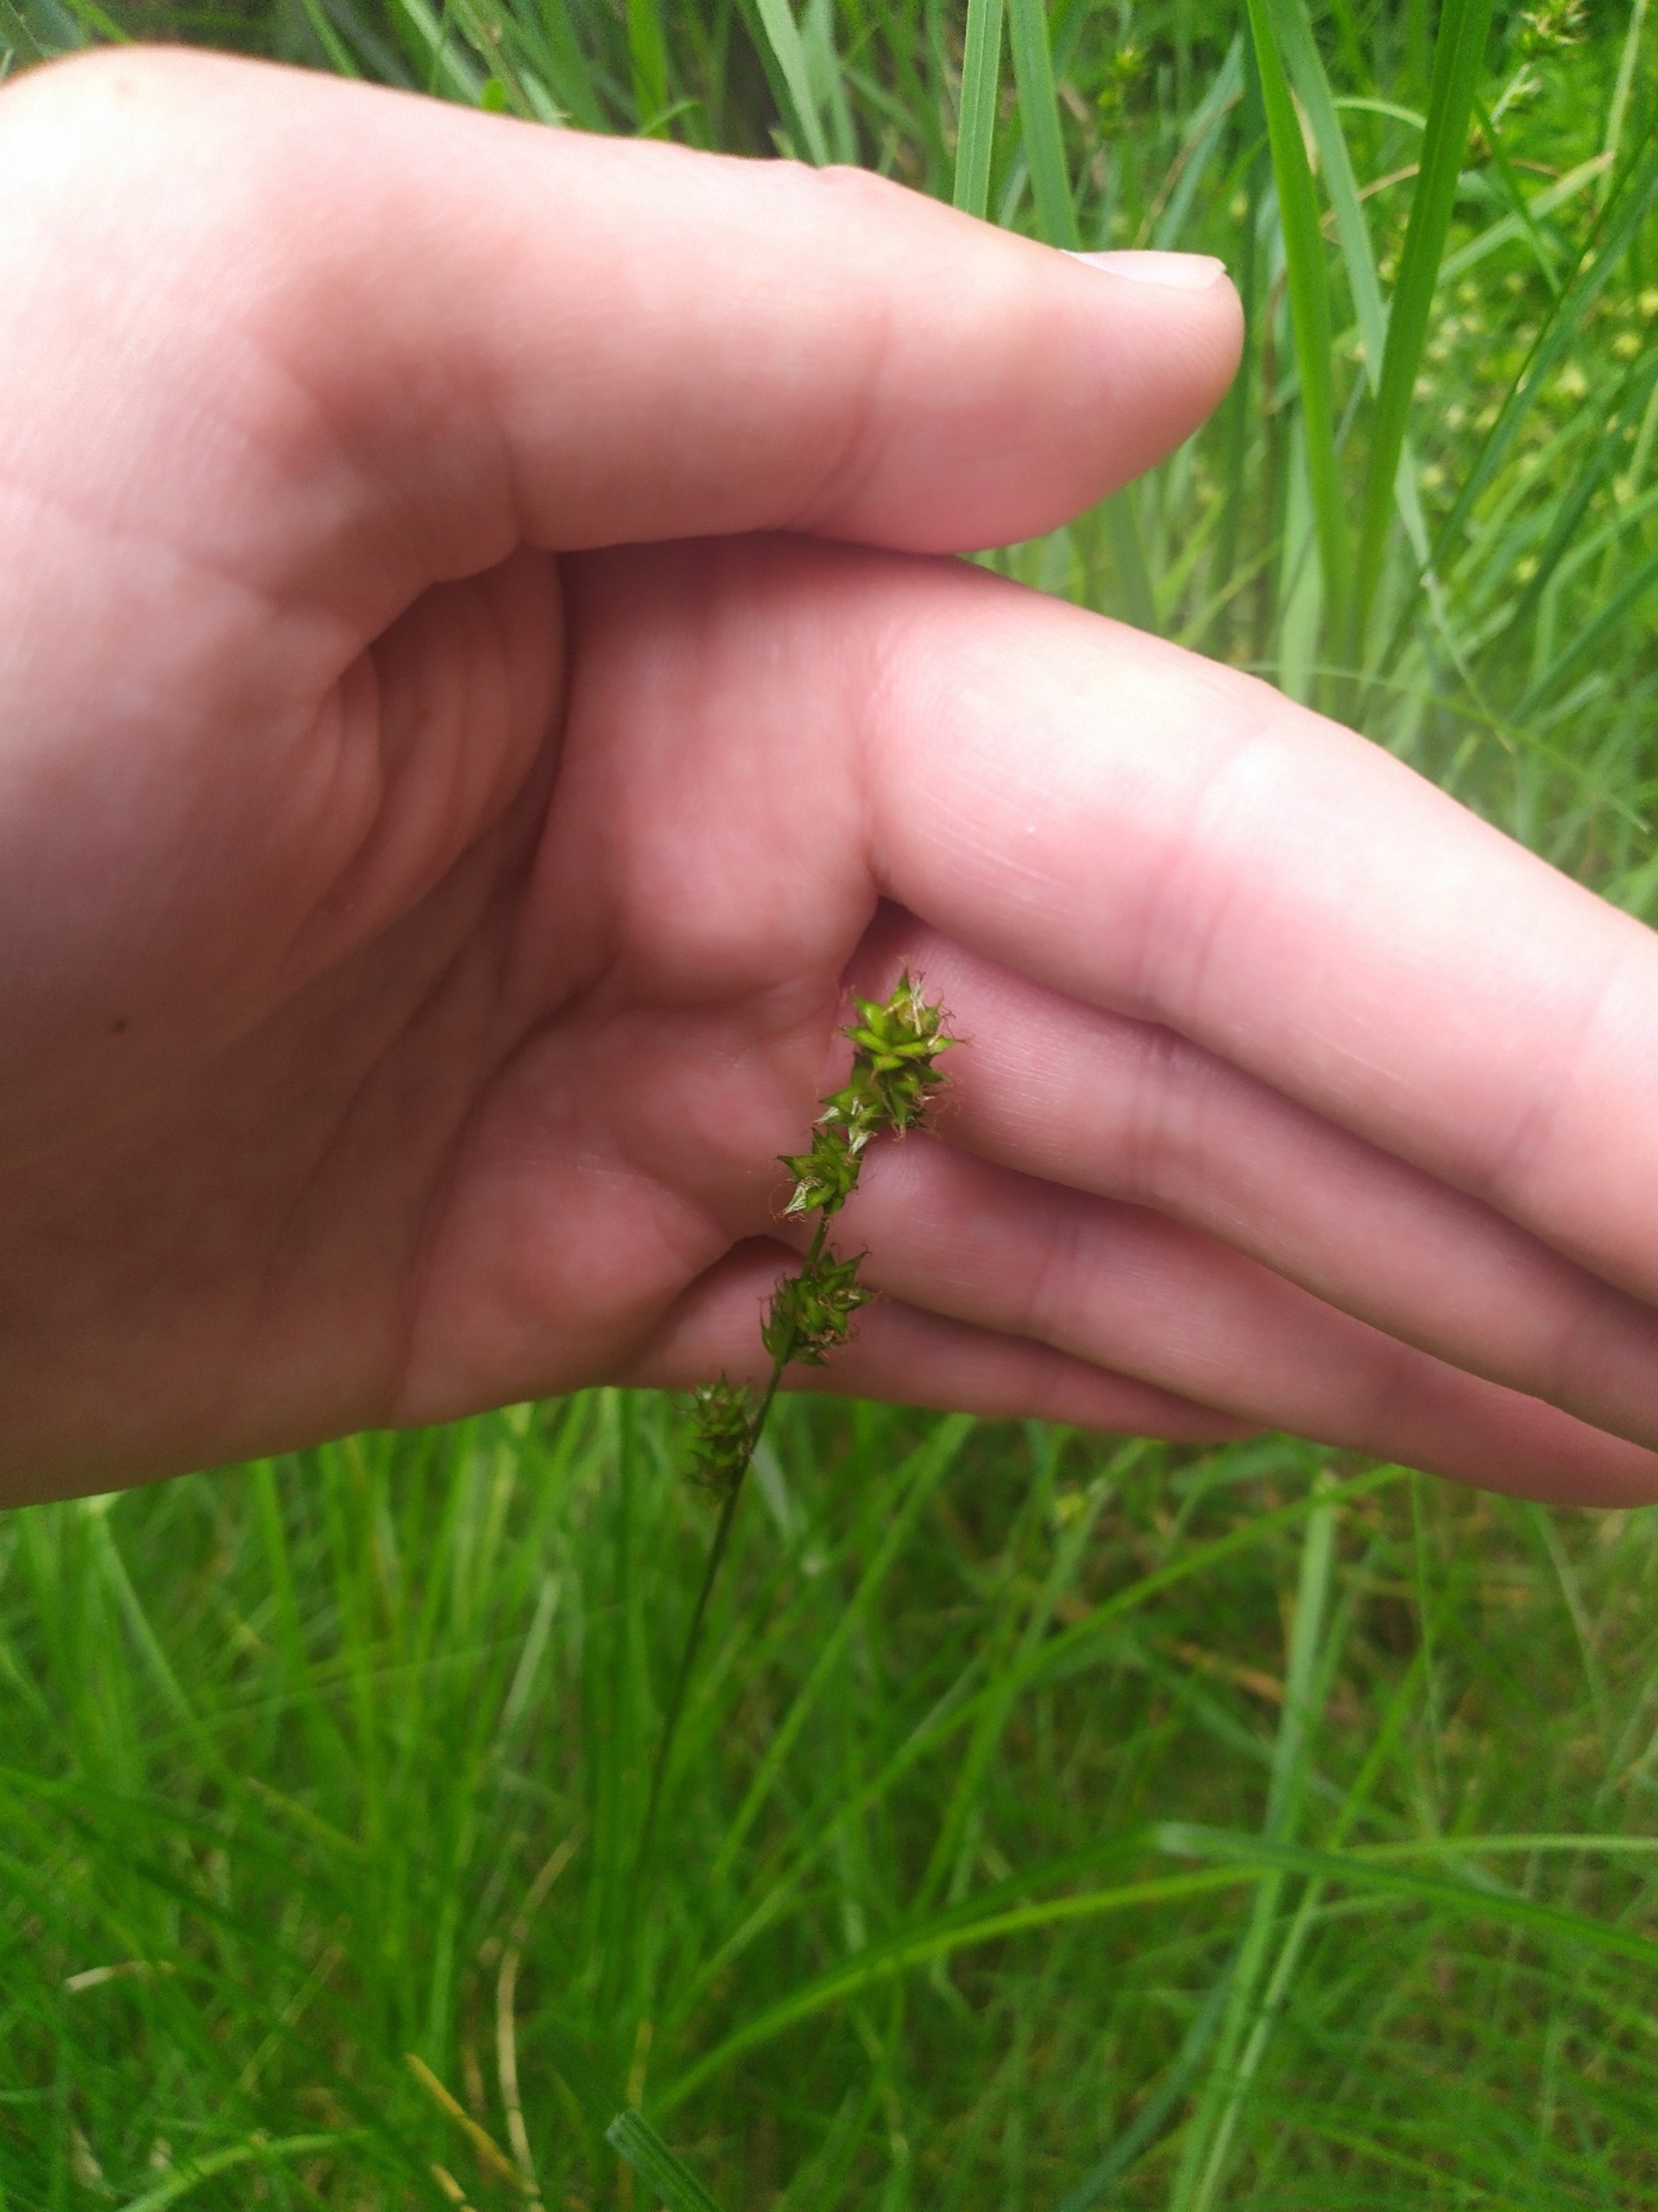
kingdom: Plantae
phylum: Tracheophyta
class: Liliopsida
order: Poales
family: Cyperaceae
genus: Carex
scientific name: Carex divulsa
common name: Mellembrudt star
